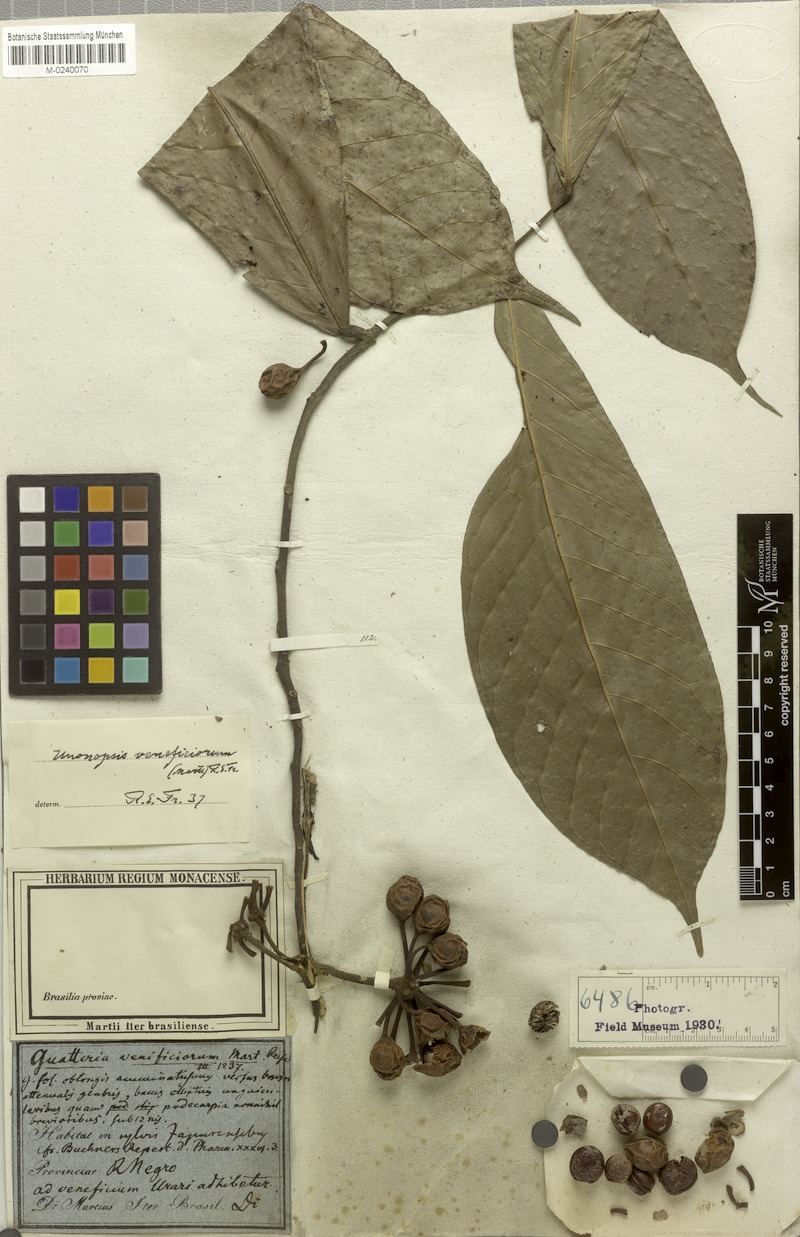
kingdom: Plantae
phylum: Tracheophyta
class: Magnoliopsida
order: Magnoliales
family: Annonaceae
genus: Unonopsis
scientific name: Unonopsis veneficiorum
